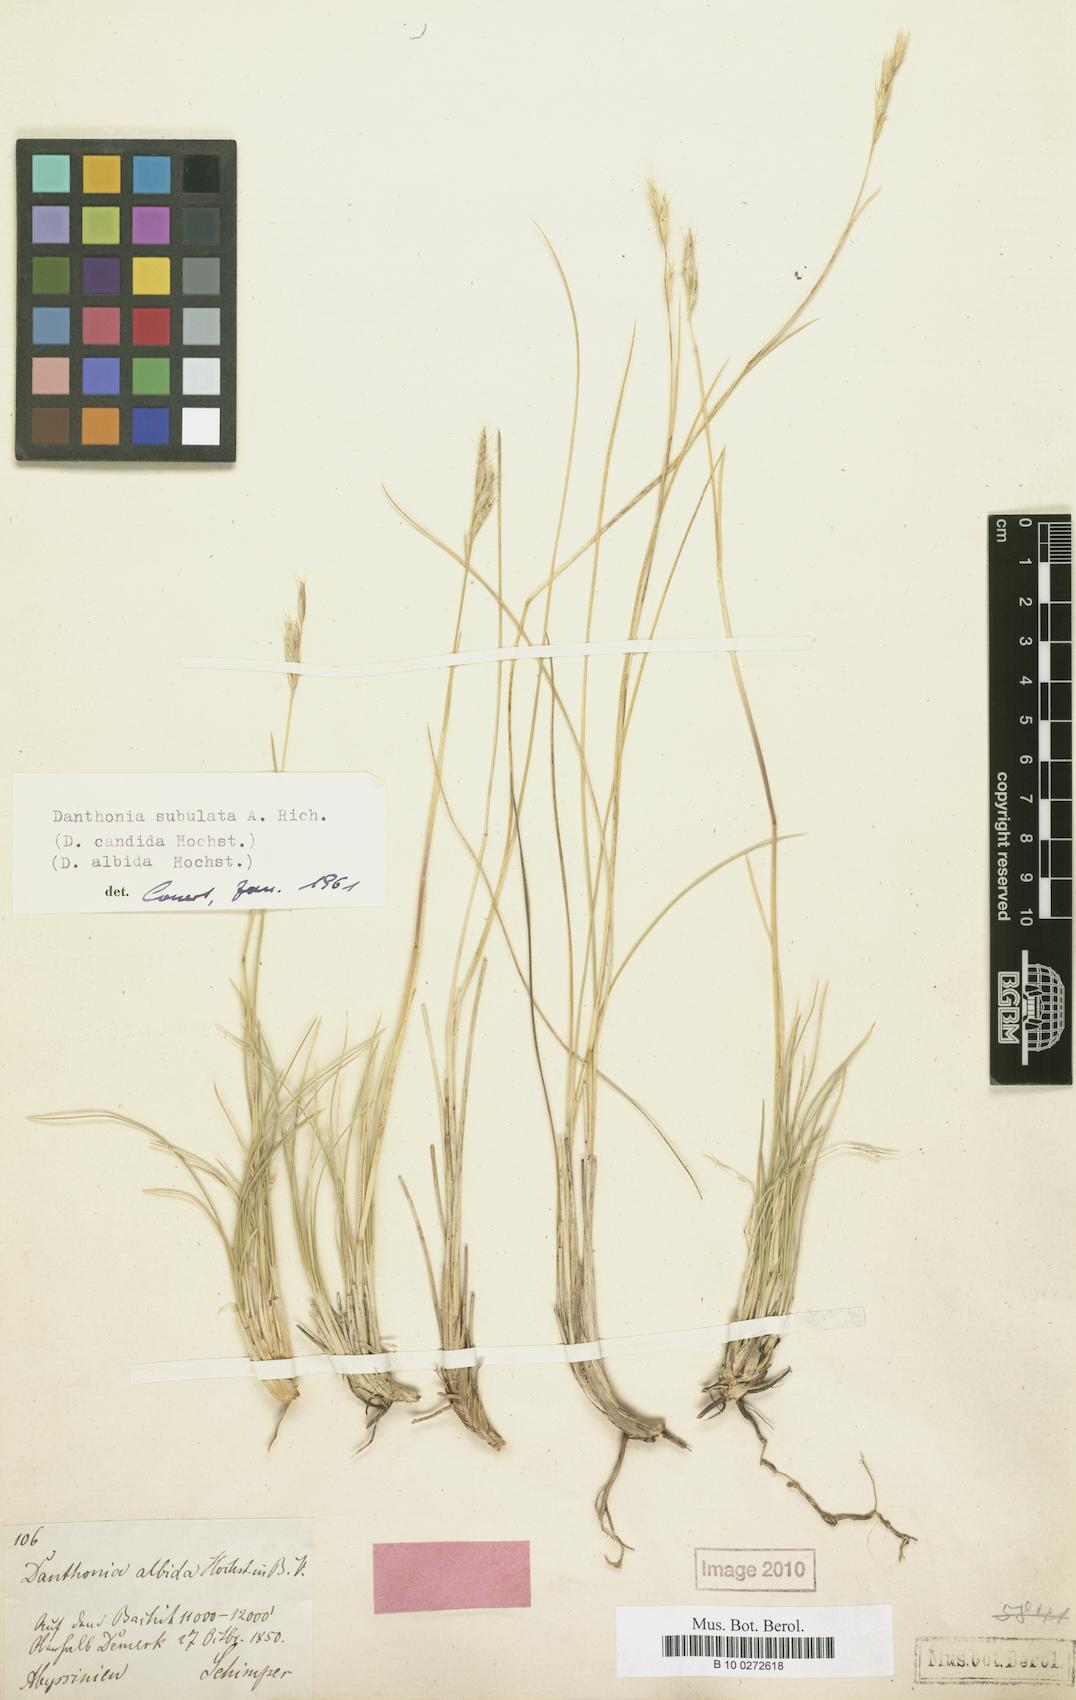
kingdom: Plantae
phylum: Tracheophyta
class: Liliopsida
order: Poales
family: Poaceae
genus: Tenaxia
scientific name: Tenaxia subulata
